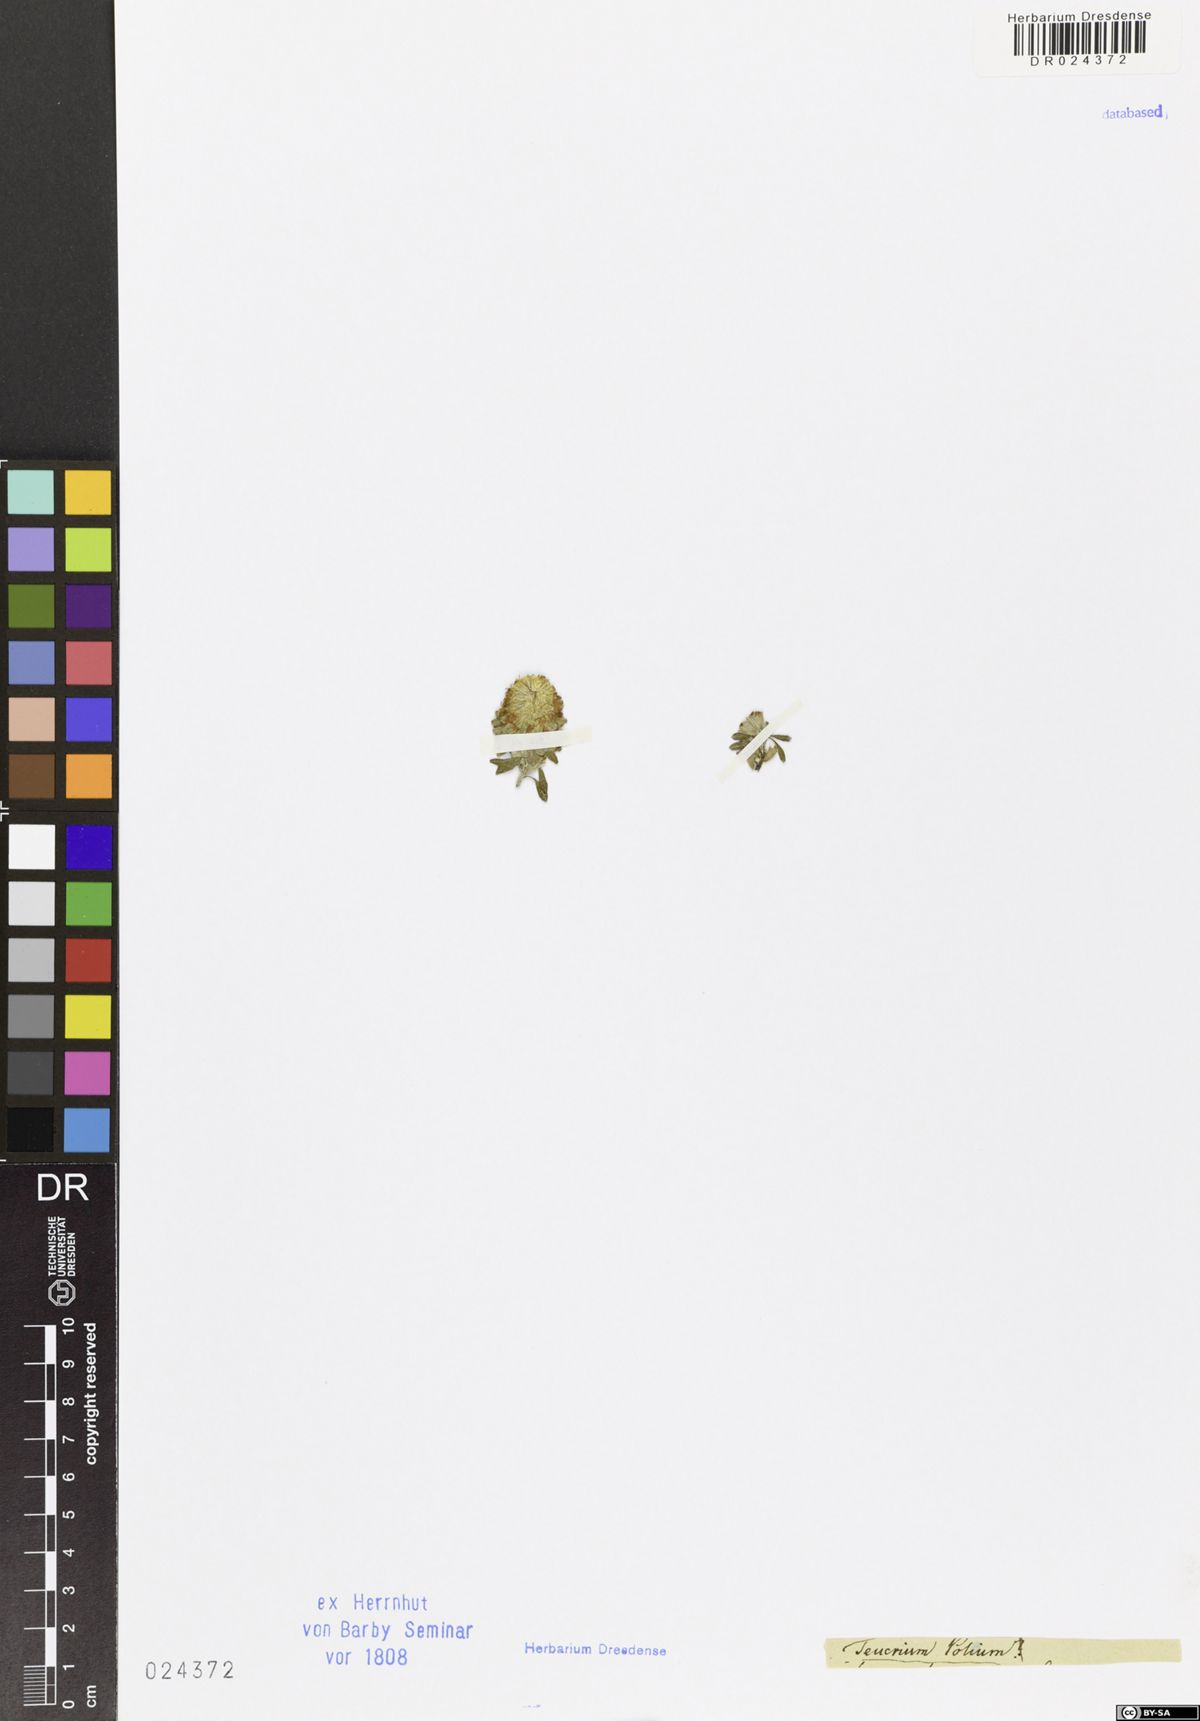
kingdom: Plantae
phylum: Tracheophyta
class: Magnoliopsida
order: Lamiales
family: Lamiaceae
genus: Teucrium
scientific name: Teucrium polium
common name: Poley
